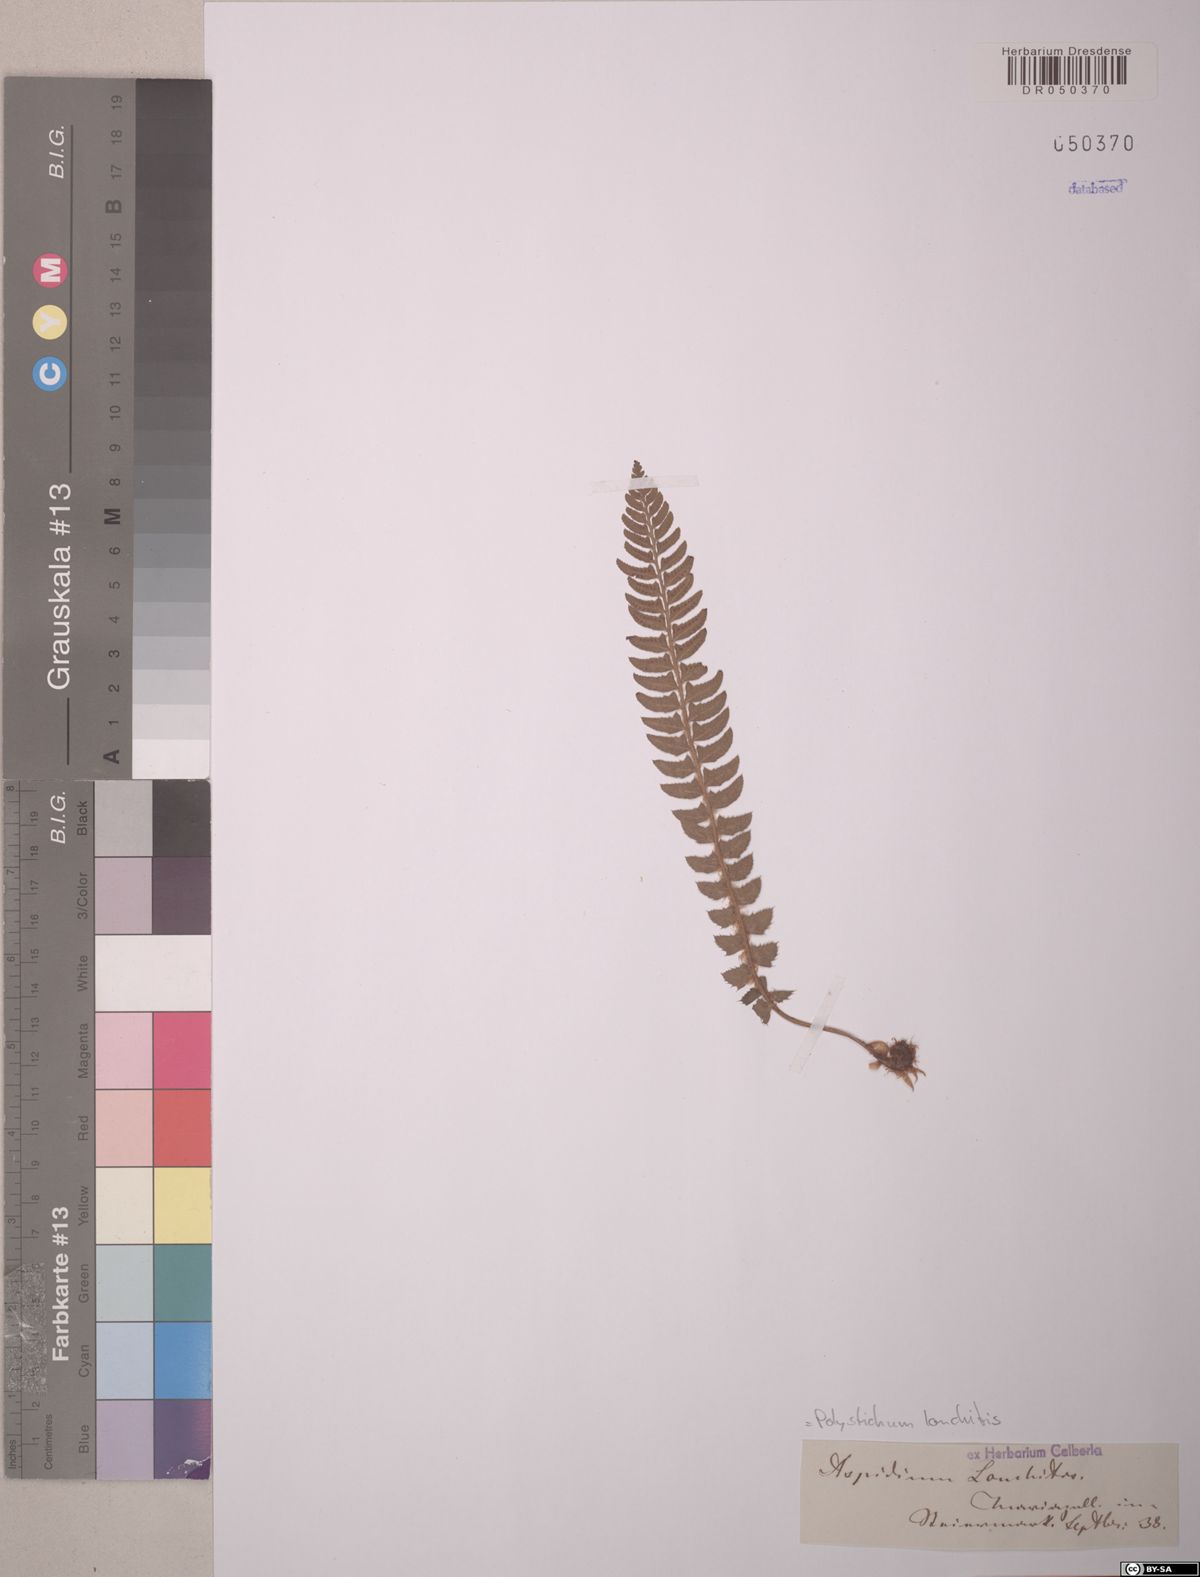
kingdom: Plantae
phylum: Tracheophyta
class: Polypodiopsida
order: Polypodiales
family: Dryopteridaceae
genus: Polystichum
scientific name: Polystichum lonchitis
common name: Holly fern
